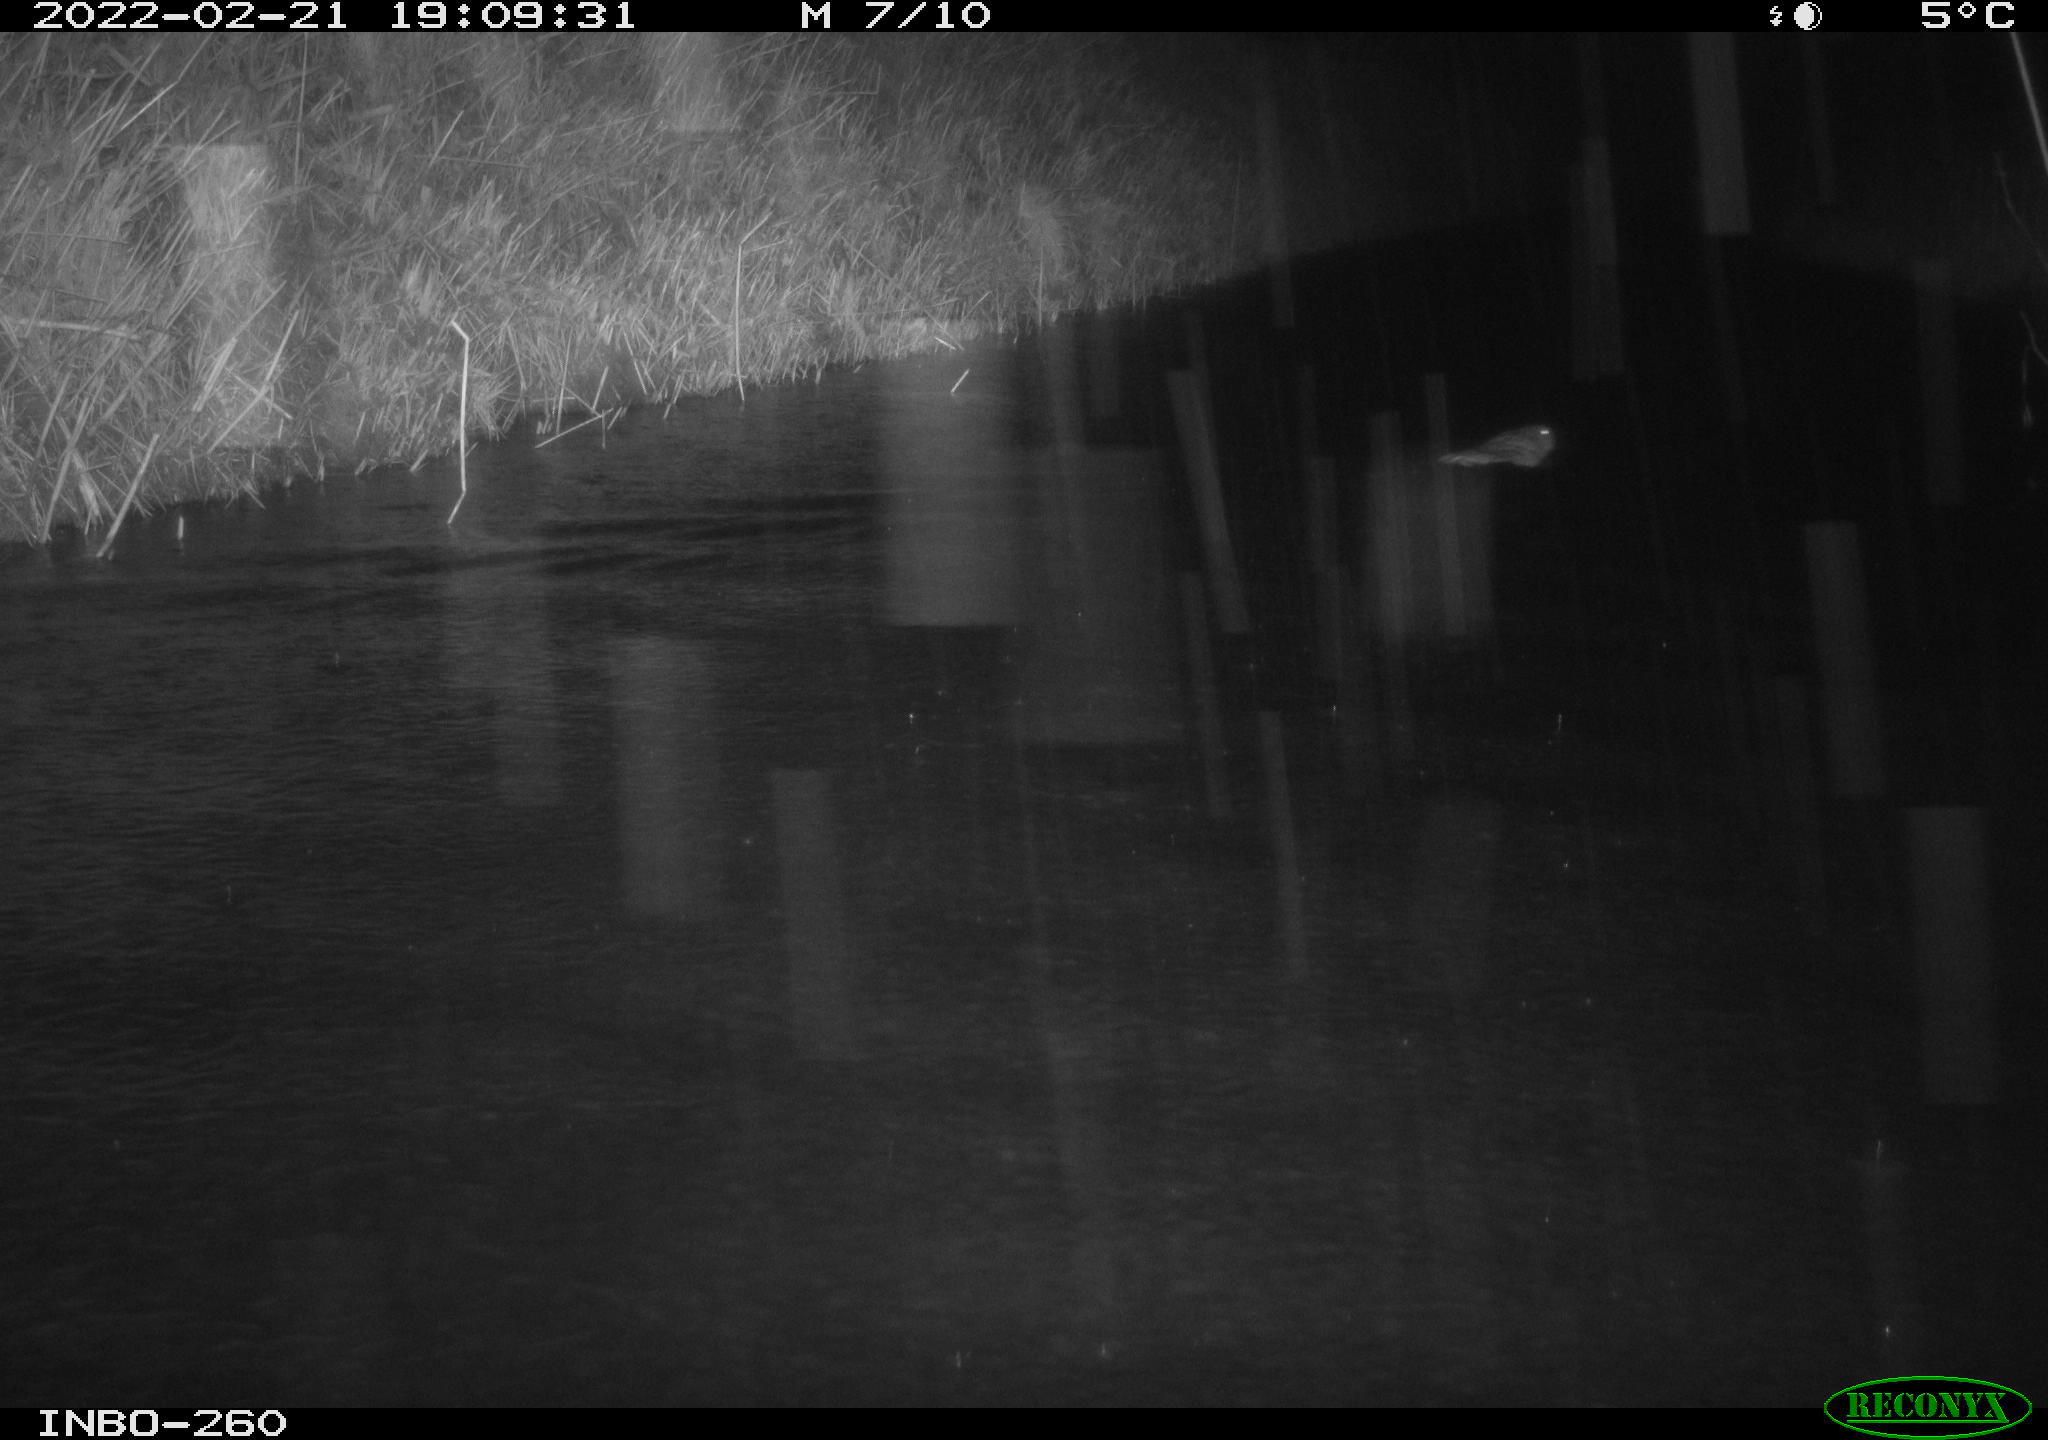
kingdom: Animalia
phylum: Chordata
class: Mammalia
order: Rodentia
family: Cricetidae
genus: Ondatra
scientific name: Ondatra zibethicus
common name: Muskrat
